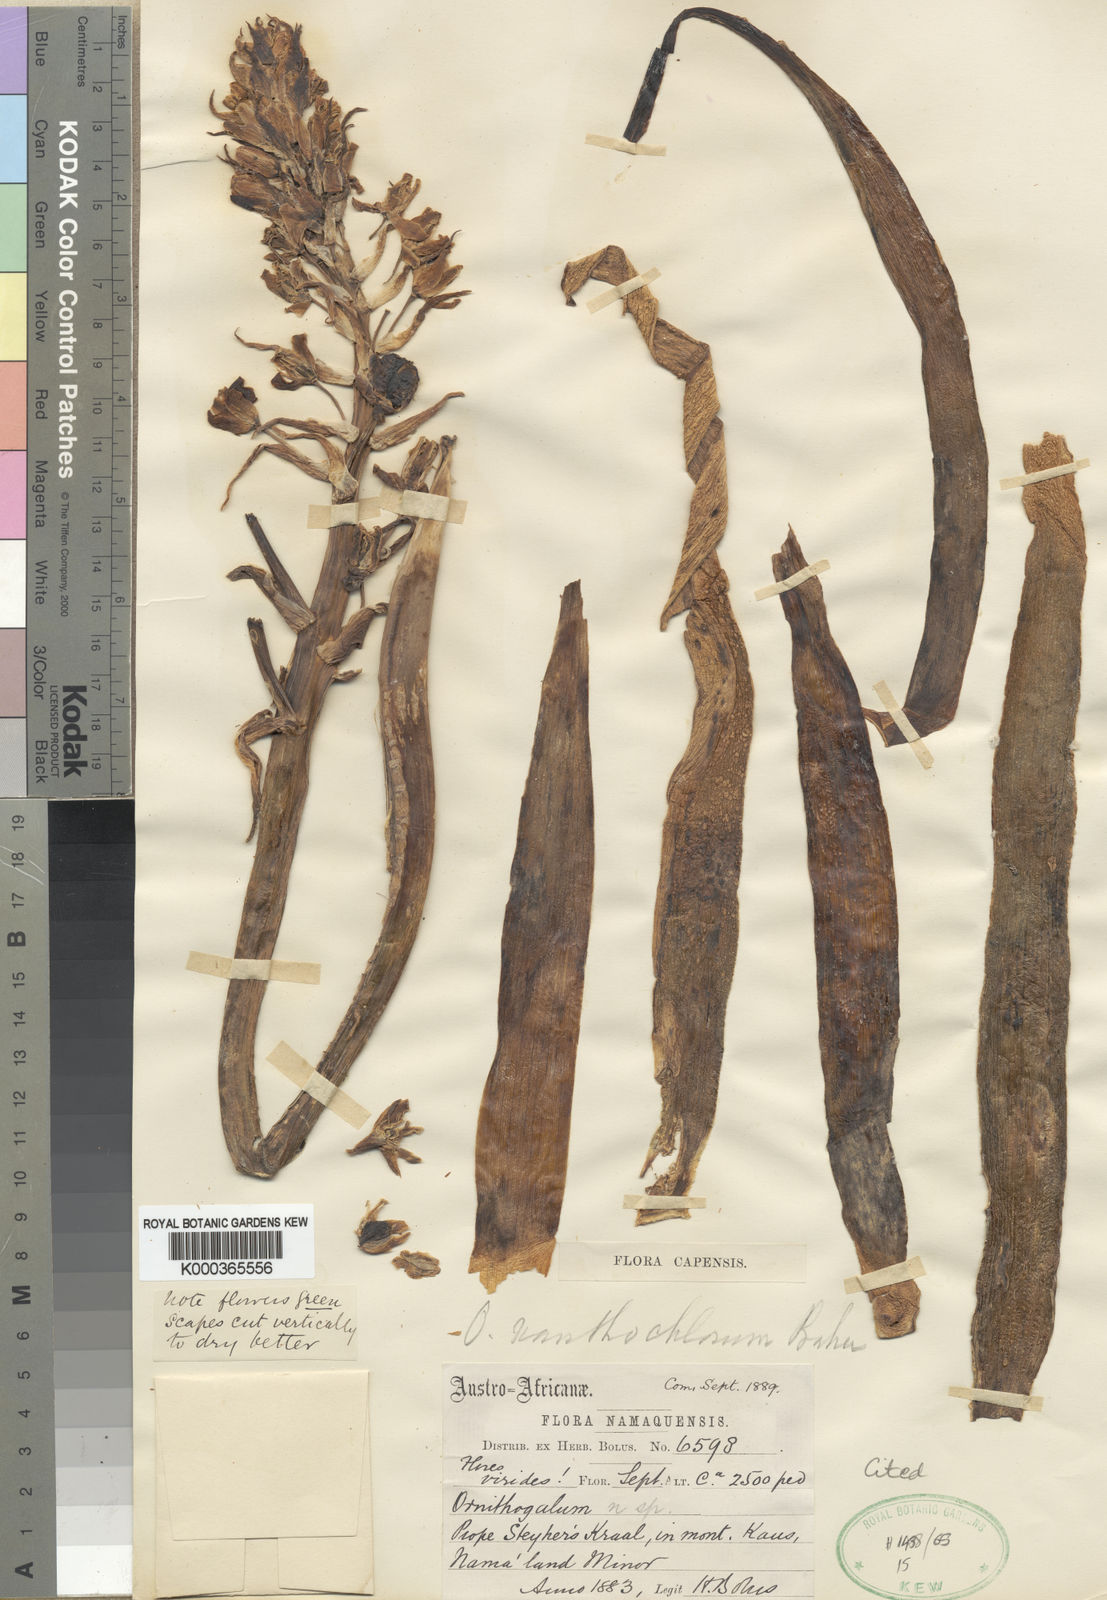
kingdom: Plantae
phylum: Tracheophyta
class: Liliopsida
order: Asparagales
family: Asparagaceae
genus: Ornithogalum
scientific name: Ornithogalum xanthochlorum
